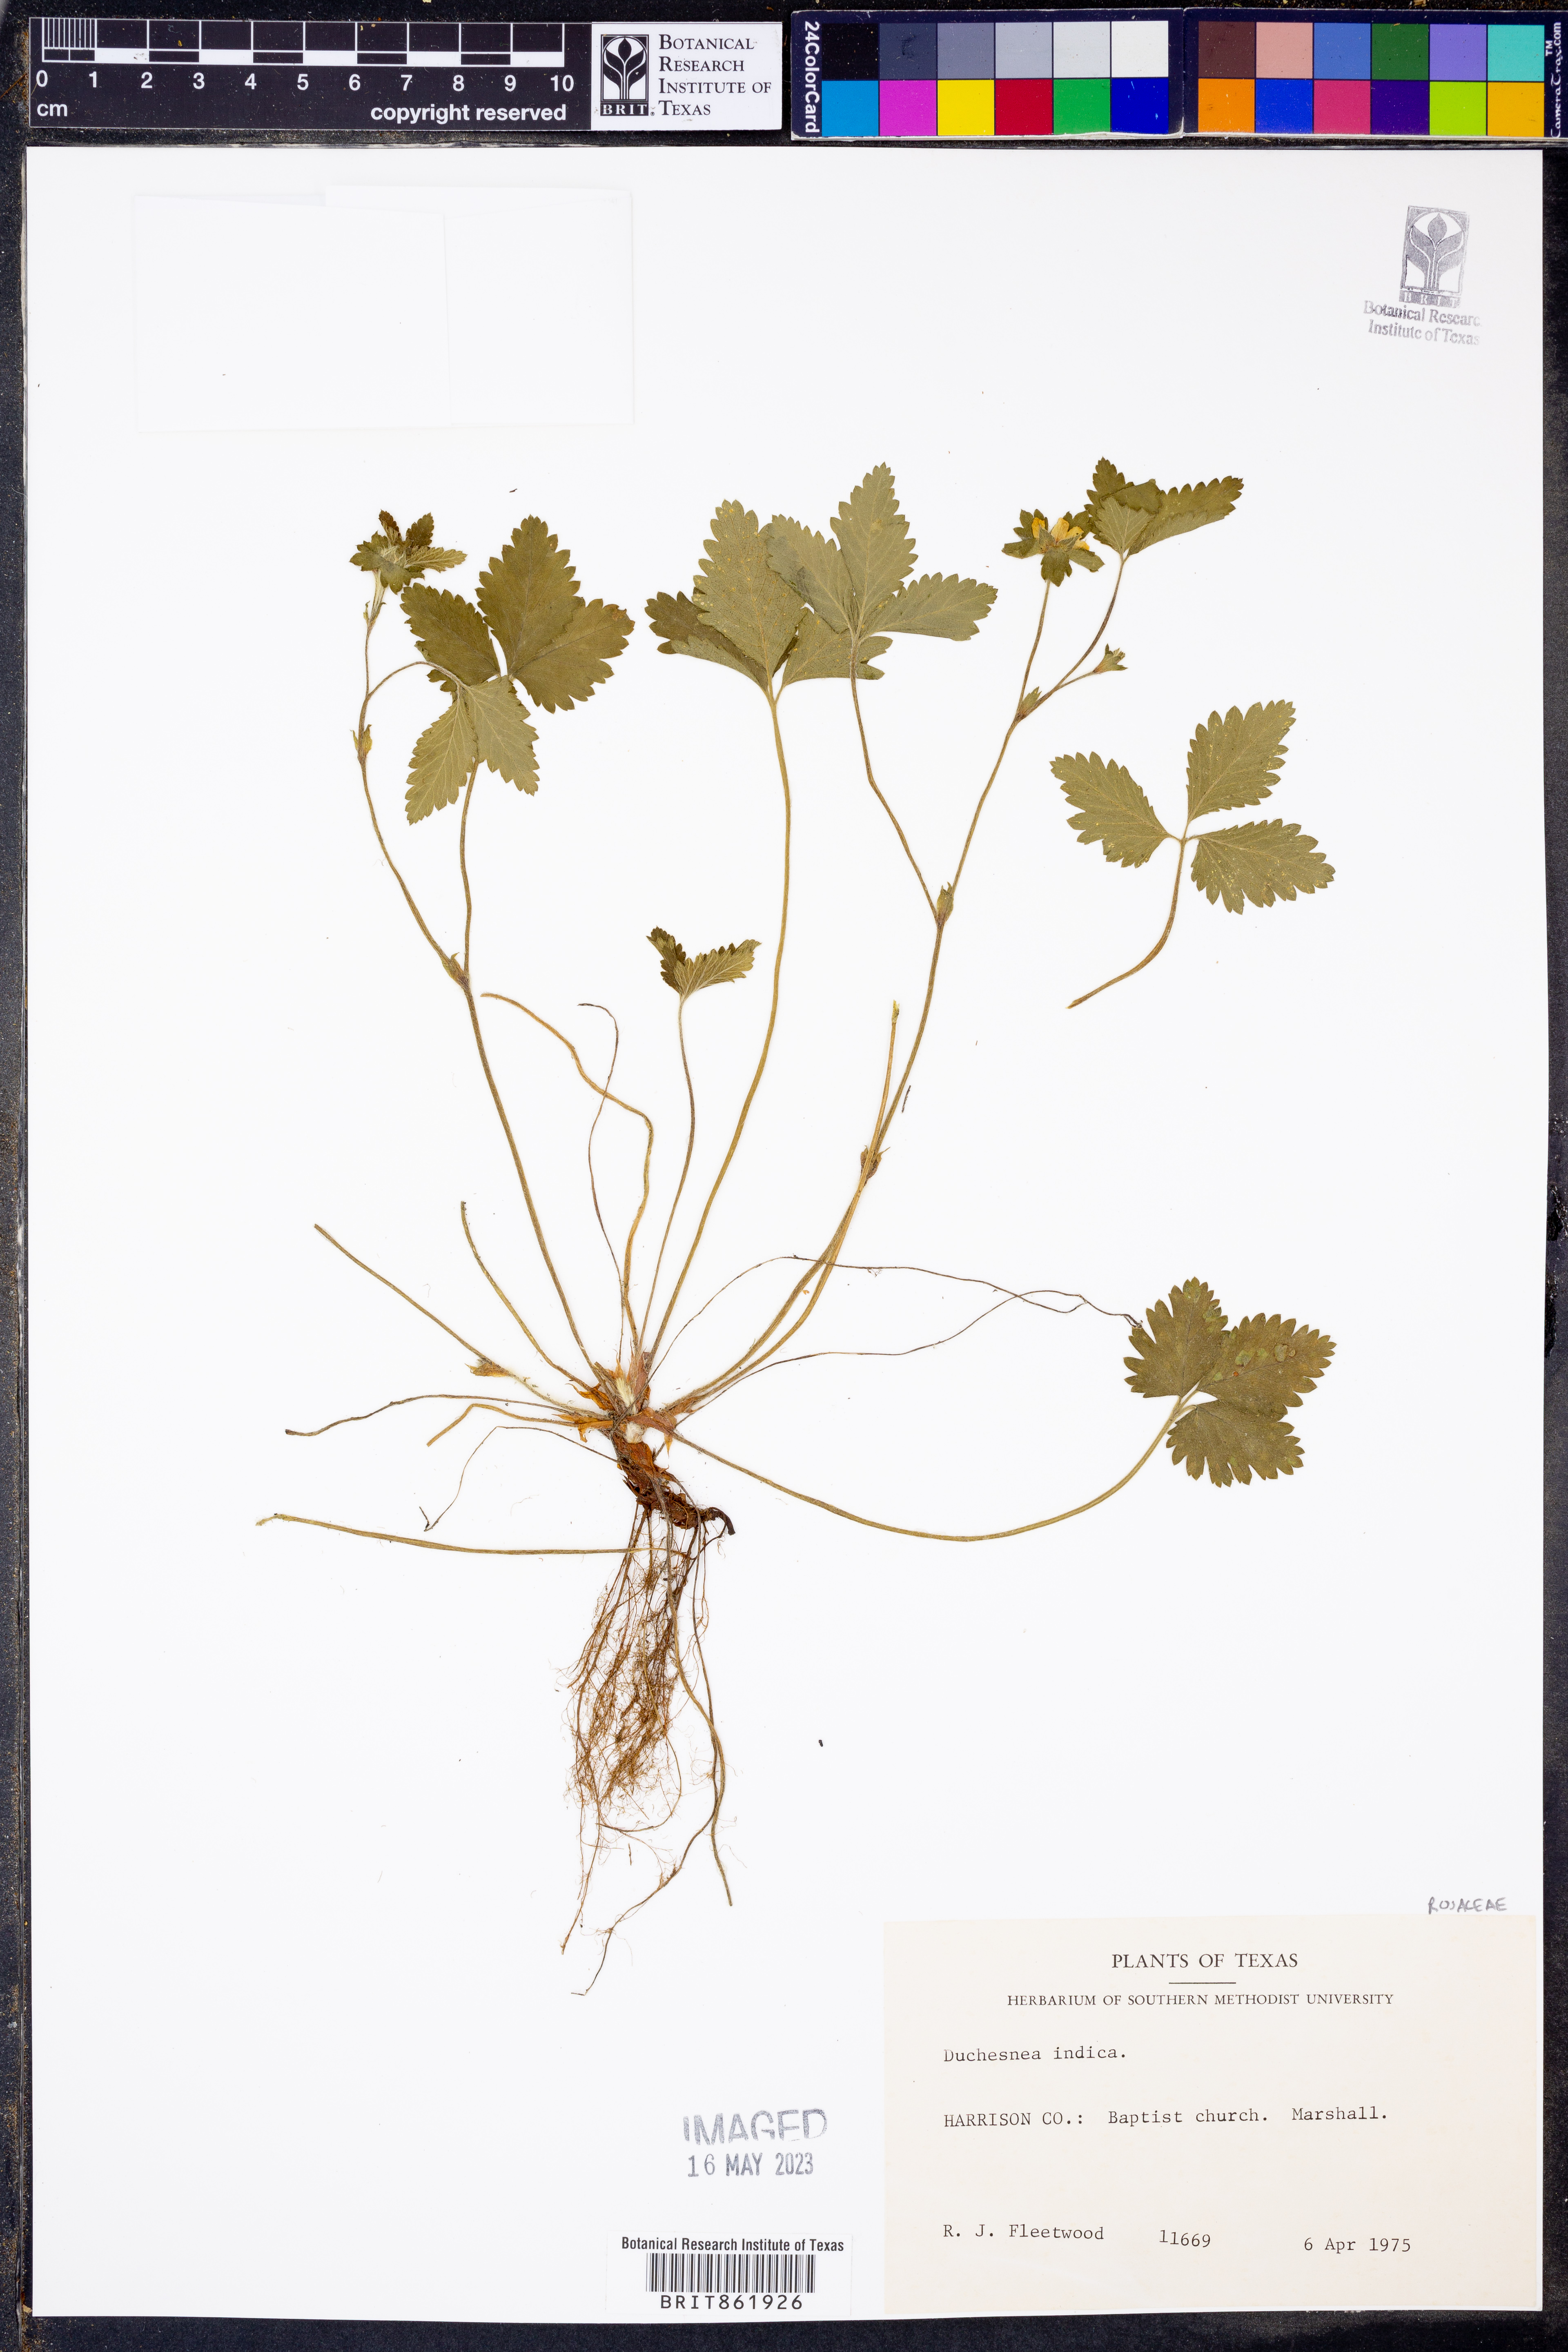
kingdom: Plantae
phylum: Tracheophyta
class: Magnoliopsida
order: Rosales
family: Rosaceae
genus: Potentilla
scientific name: Potentilla indica
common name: Yellow-flowered strawberry
